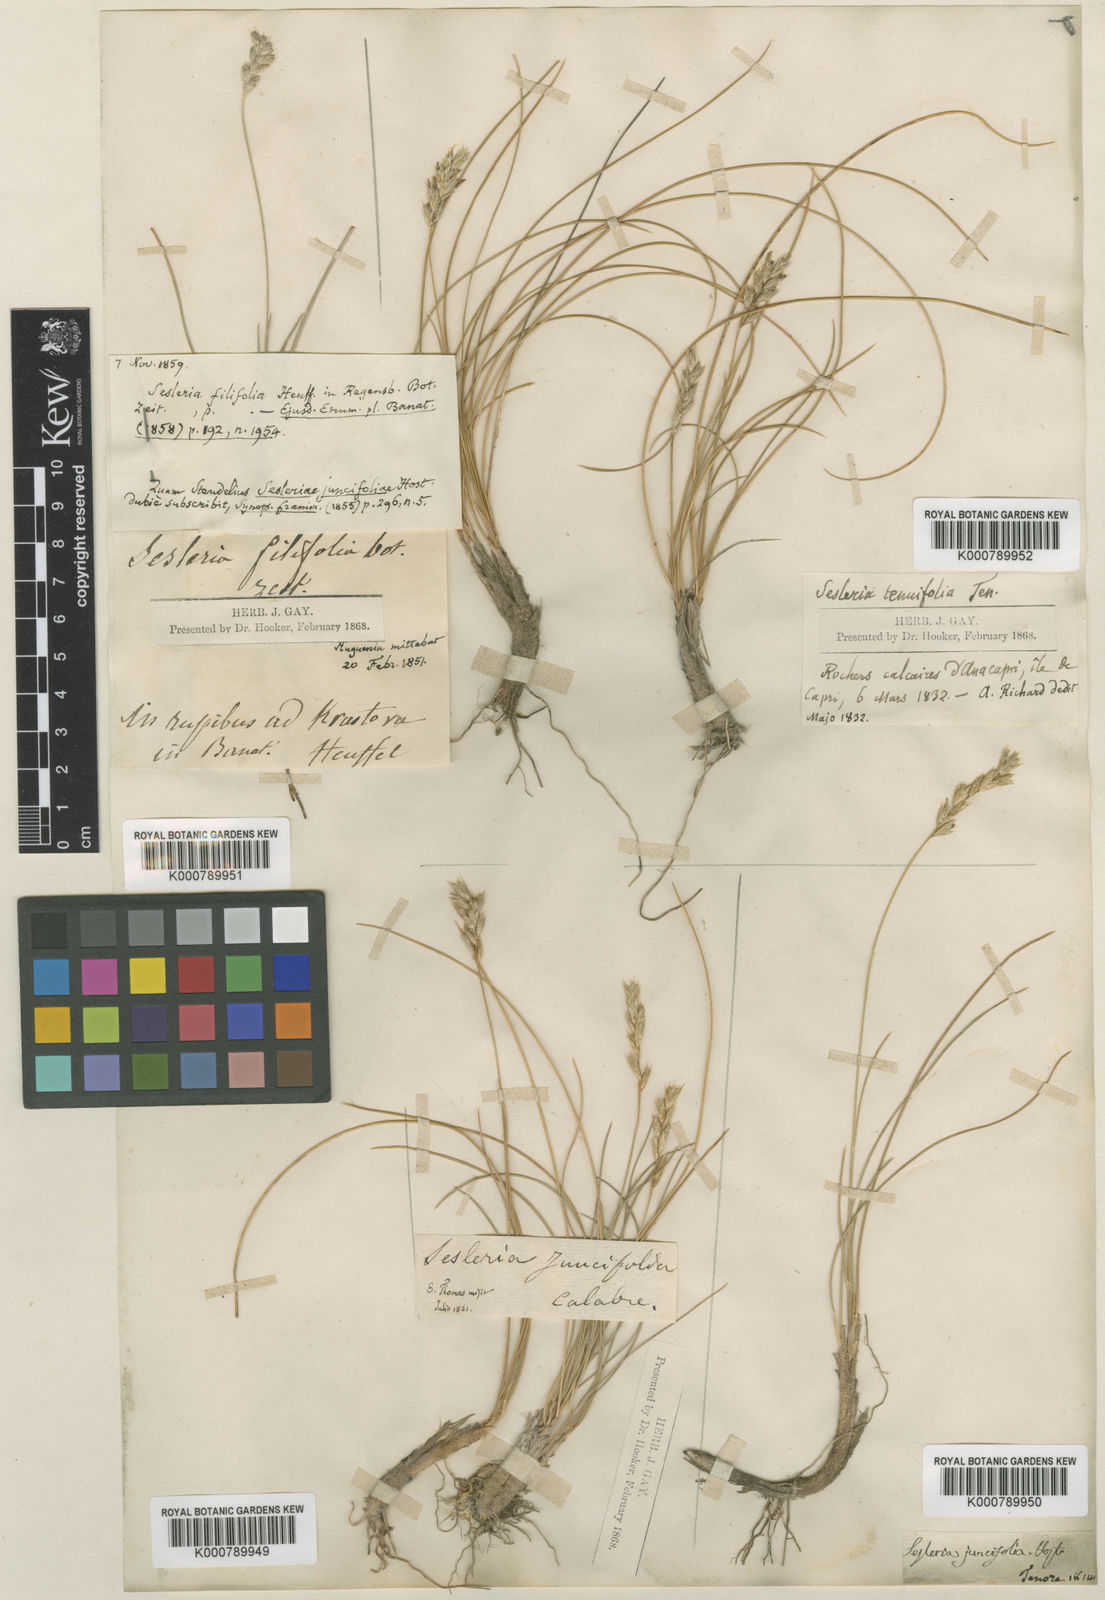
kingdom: Plantae
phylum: Tracheophyta
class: Liliopsida
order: Poales
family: Poaceae
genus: Sesleria
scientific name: Sesleria rigida
